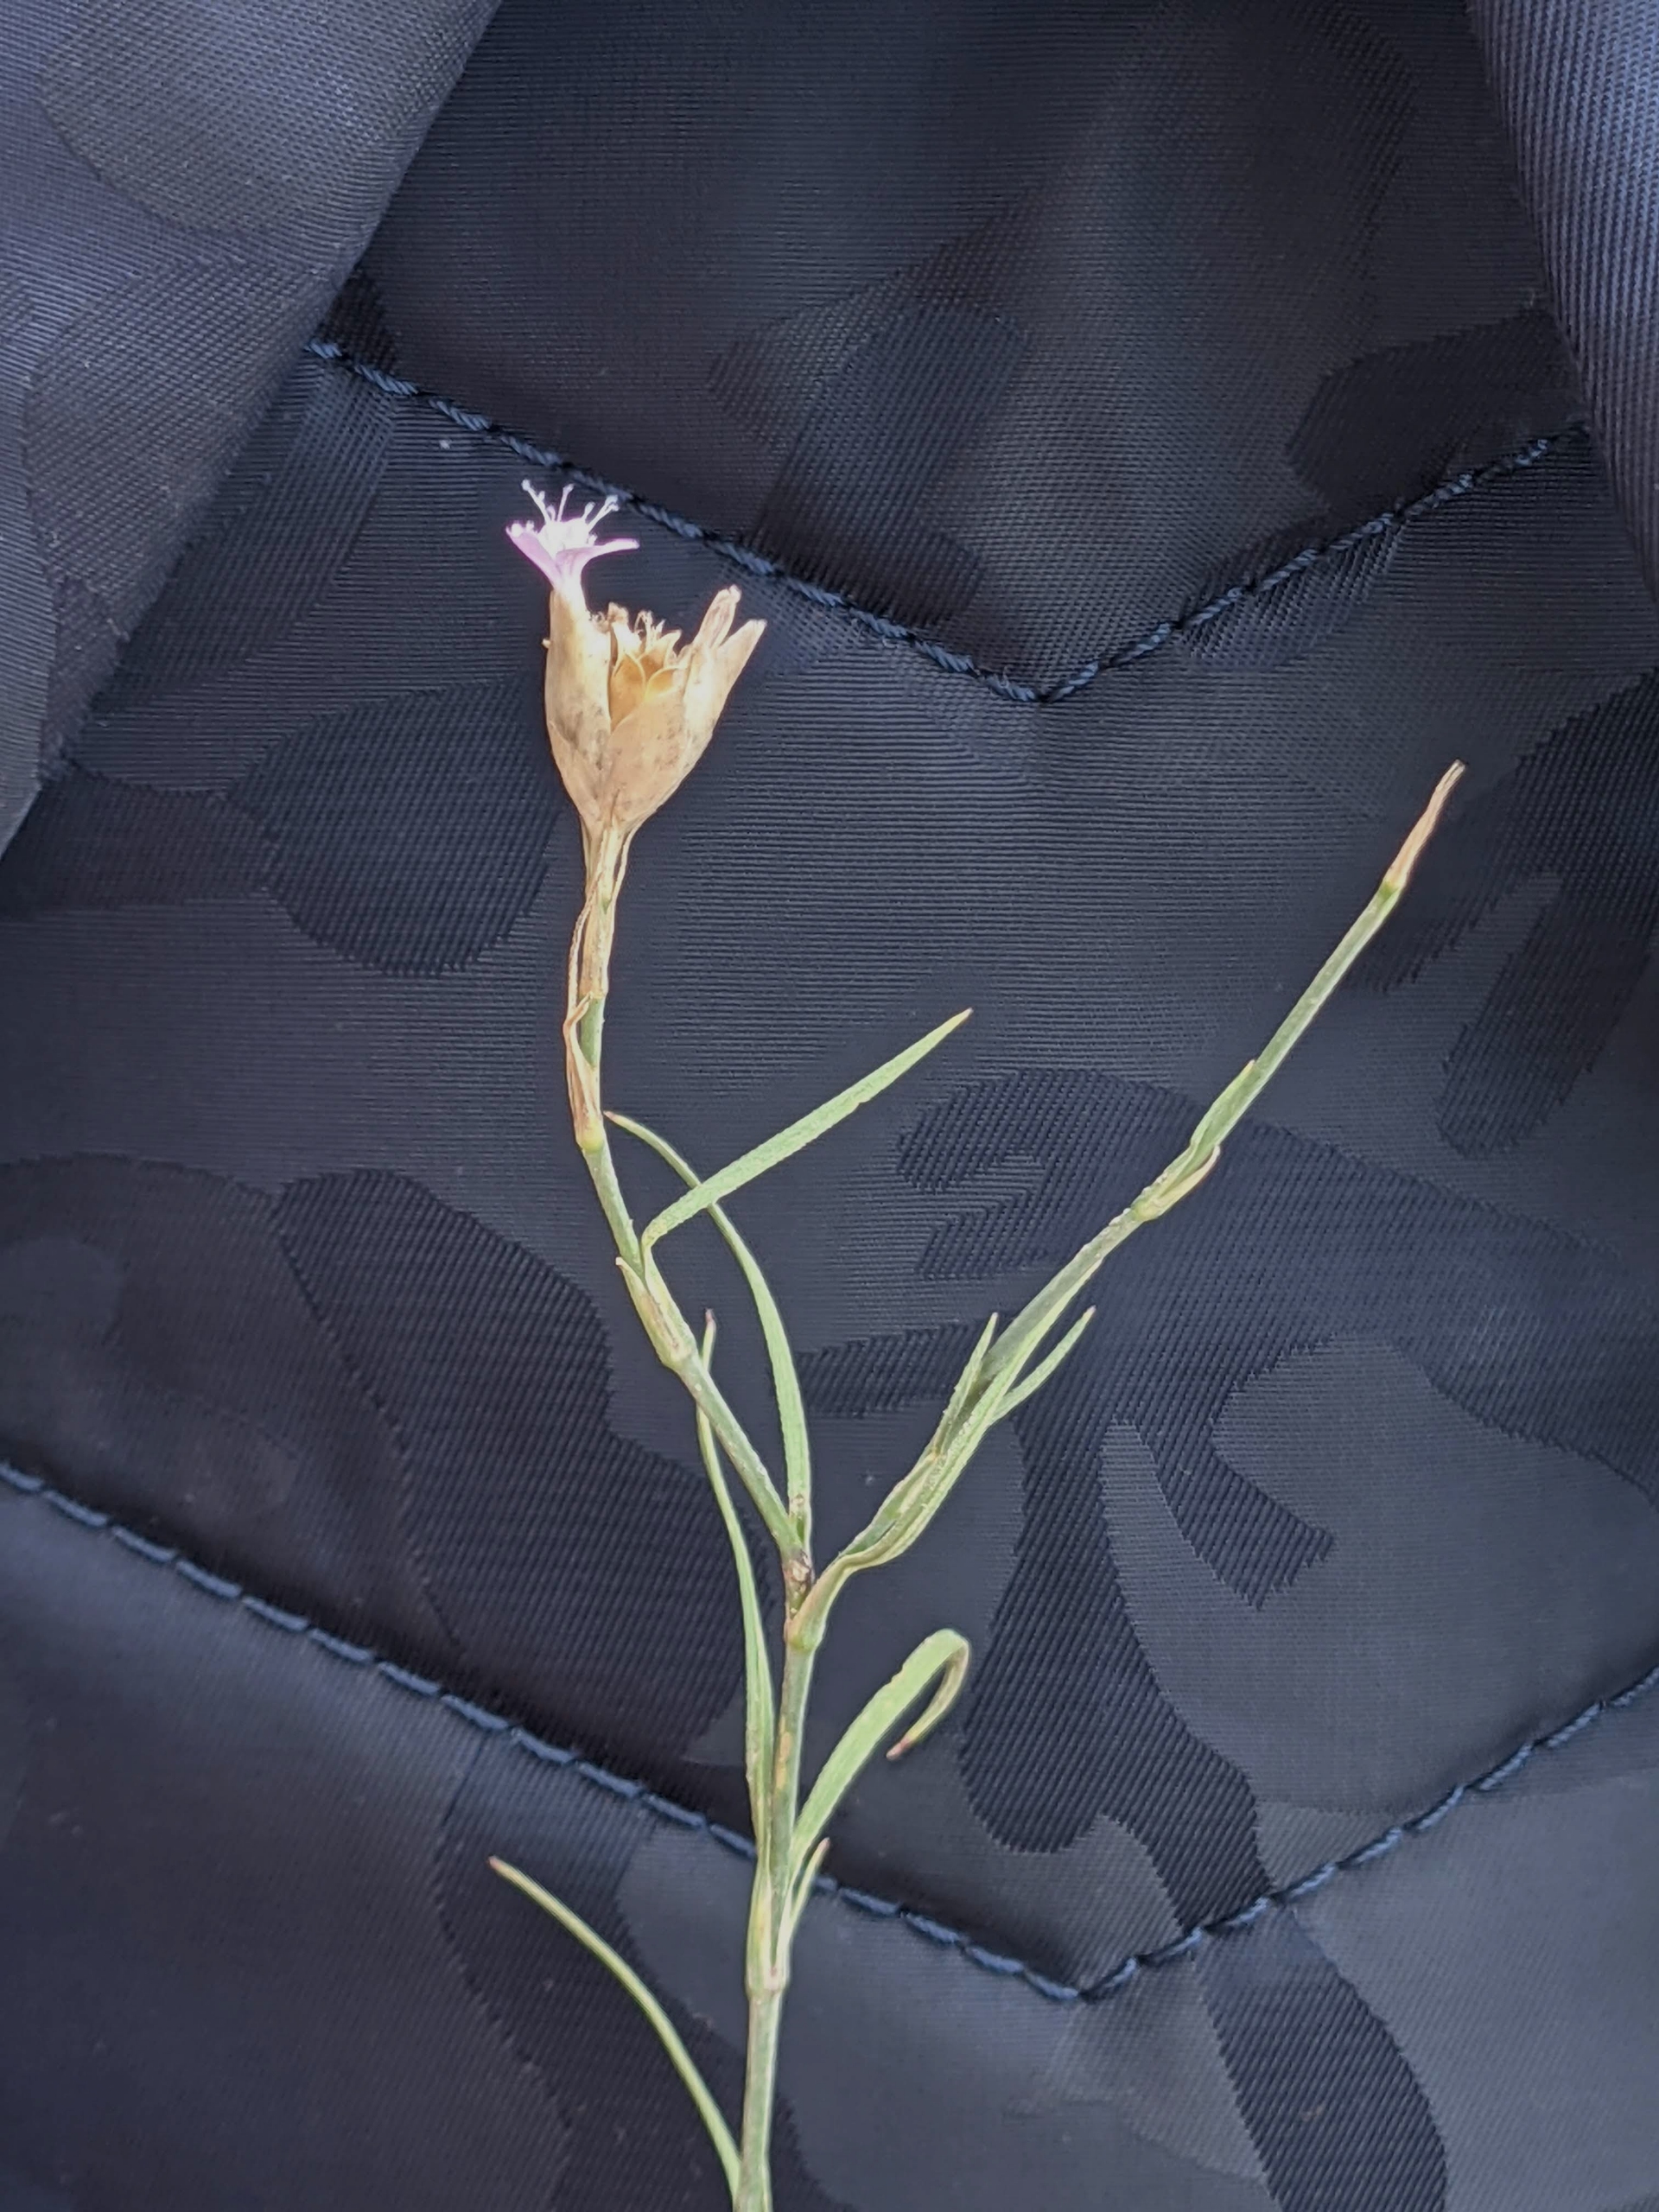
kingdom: Plantae
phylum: Tracheophyta
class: Magnoliopsida
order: Caryophyllales
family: Caryophyllaceae
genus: Petrorhagia
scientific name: Petrorhagia prolifera
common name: Knopnellike
